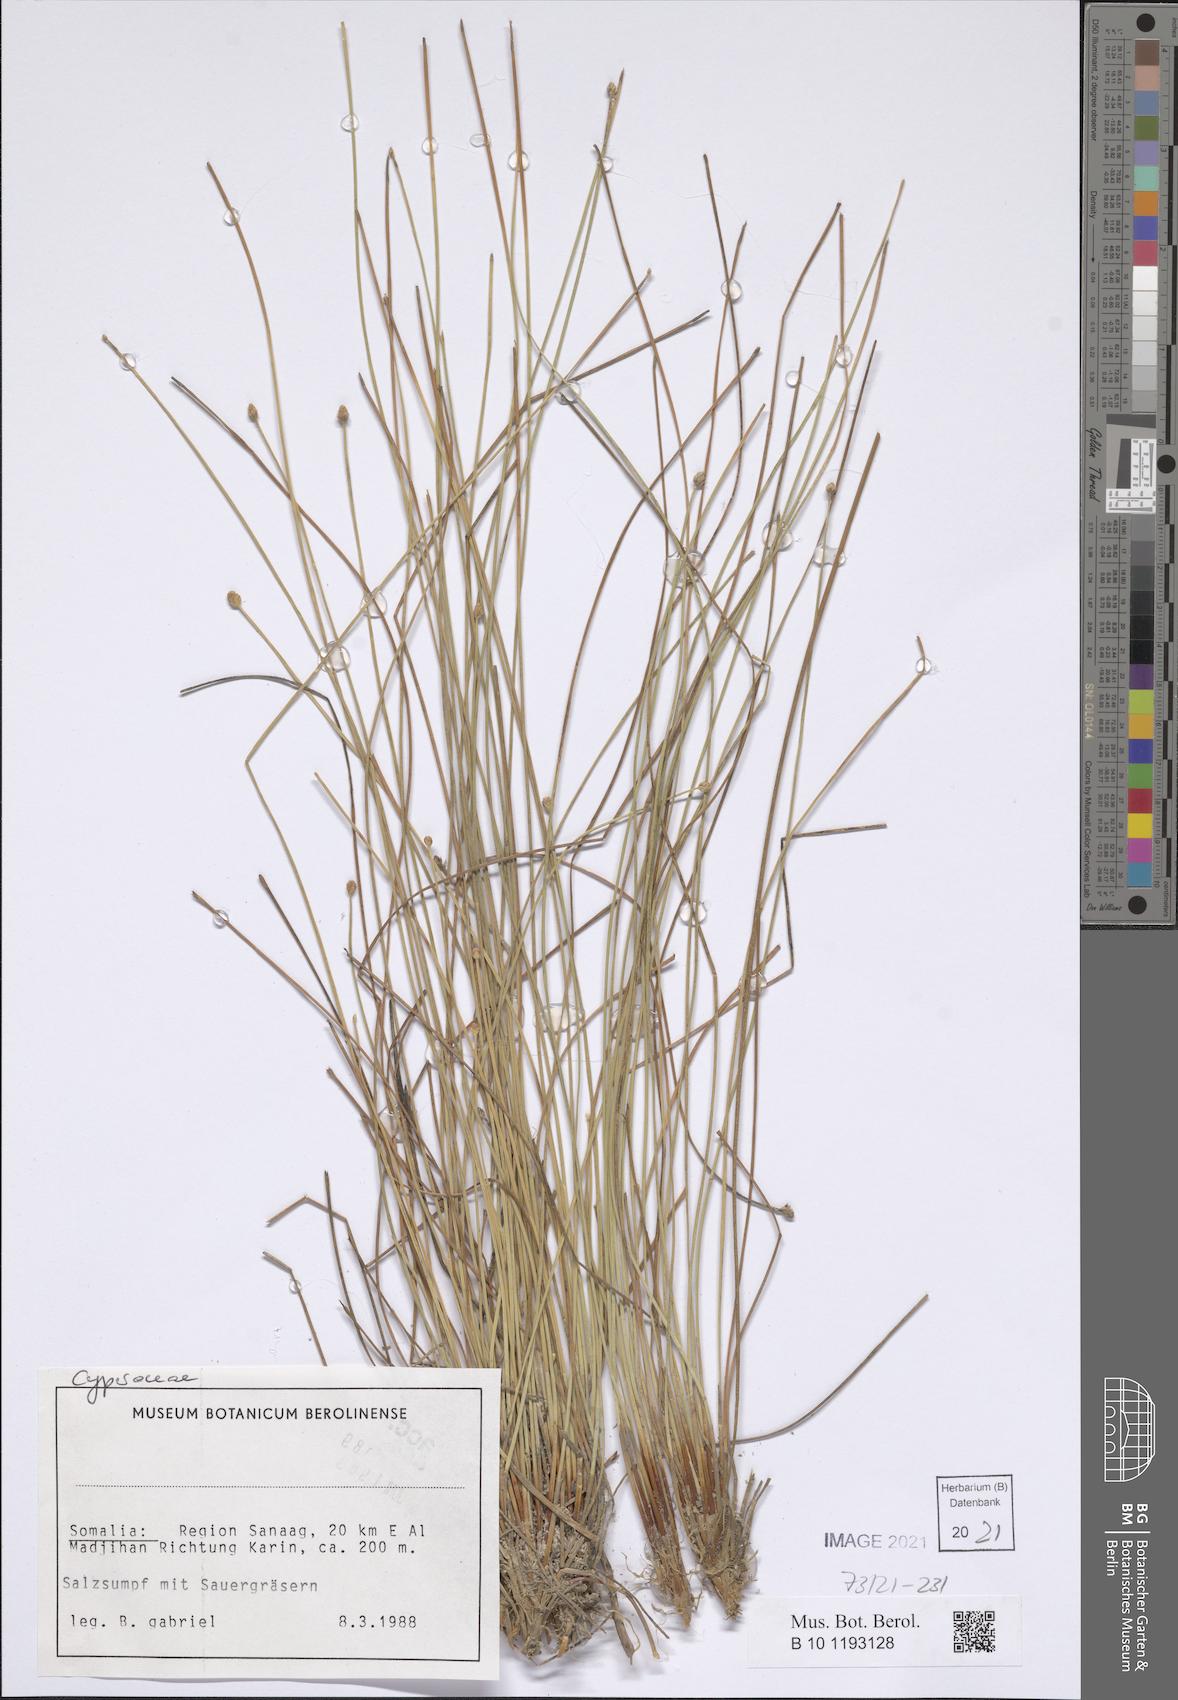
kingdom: Plantae
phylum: Tracheophyta
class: Liliopsida
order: Poales
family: Cyperaceae
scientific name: Cyperaceae
